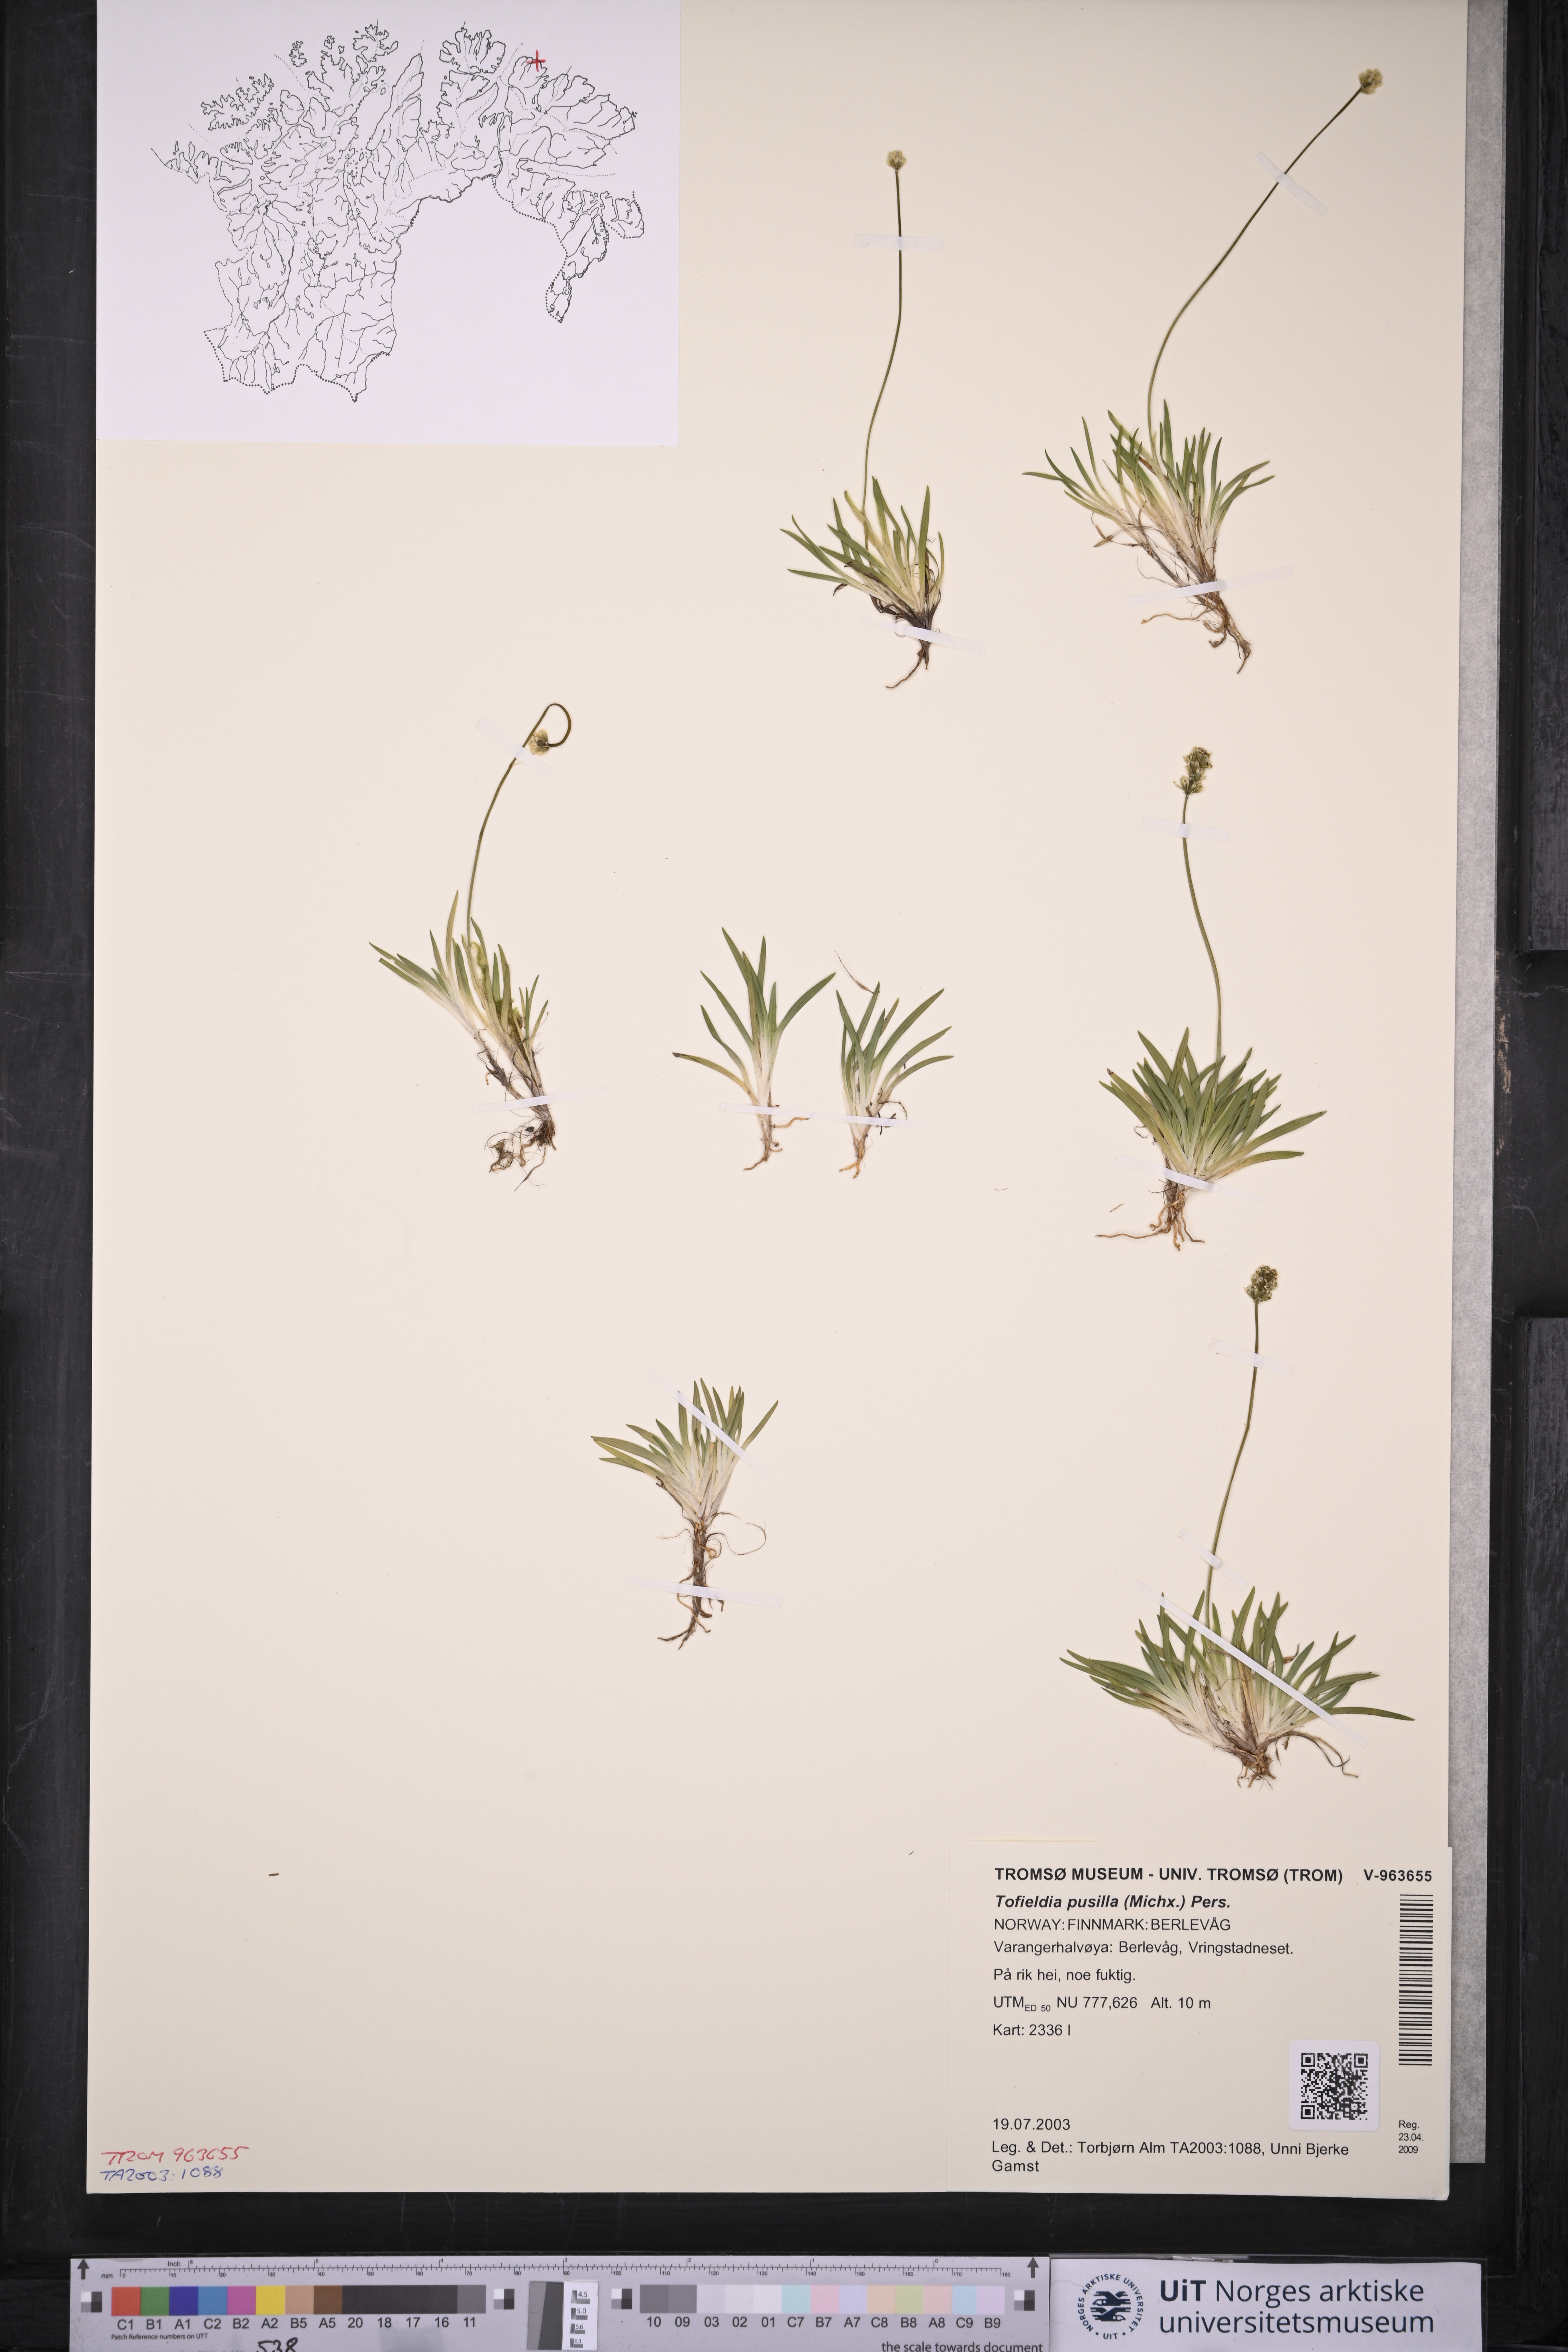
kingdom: Plantae
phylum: Tracheophyta
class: Liliopsida
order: Alismatales
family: Tofieldiaceae
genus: Tofieldia
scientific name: Tofieldia pusilla
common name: Scottish false asphodel
